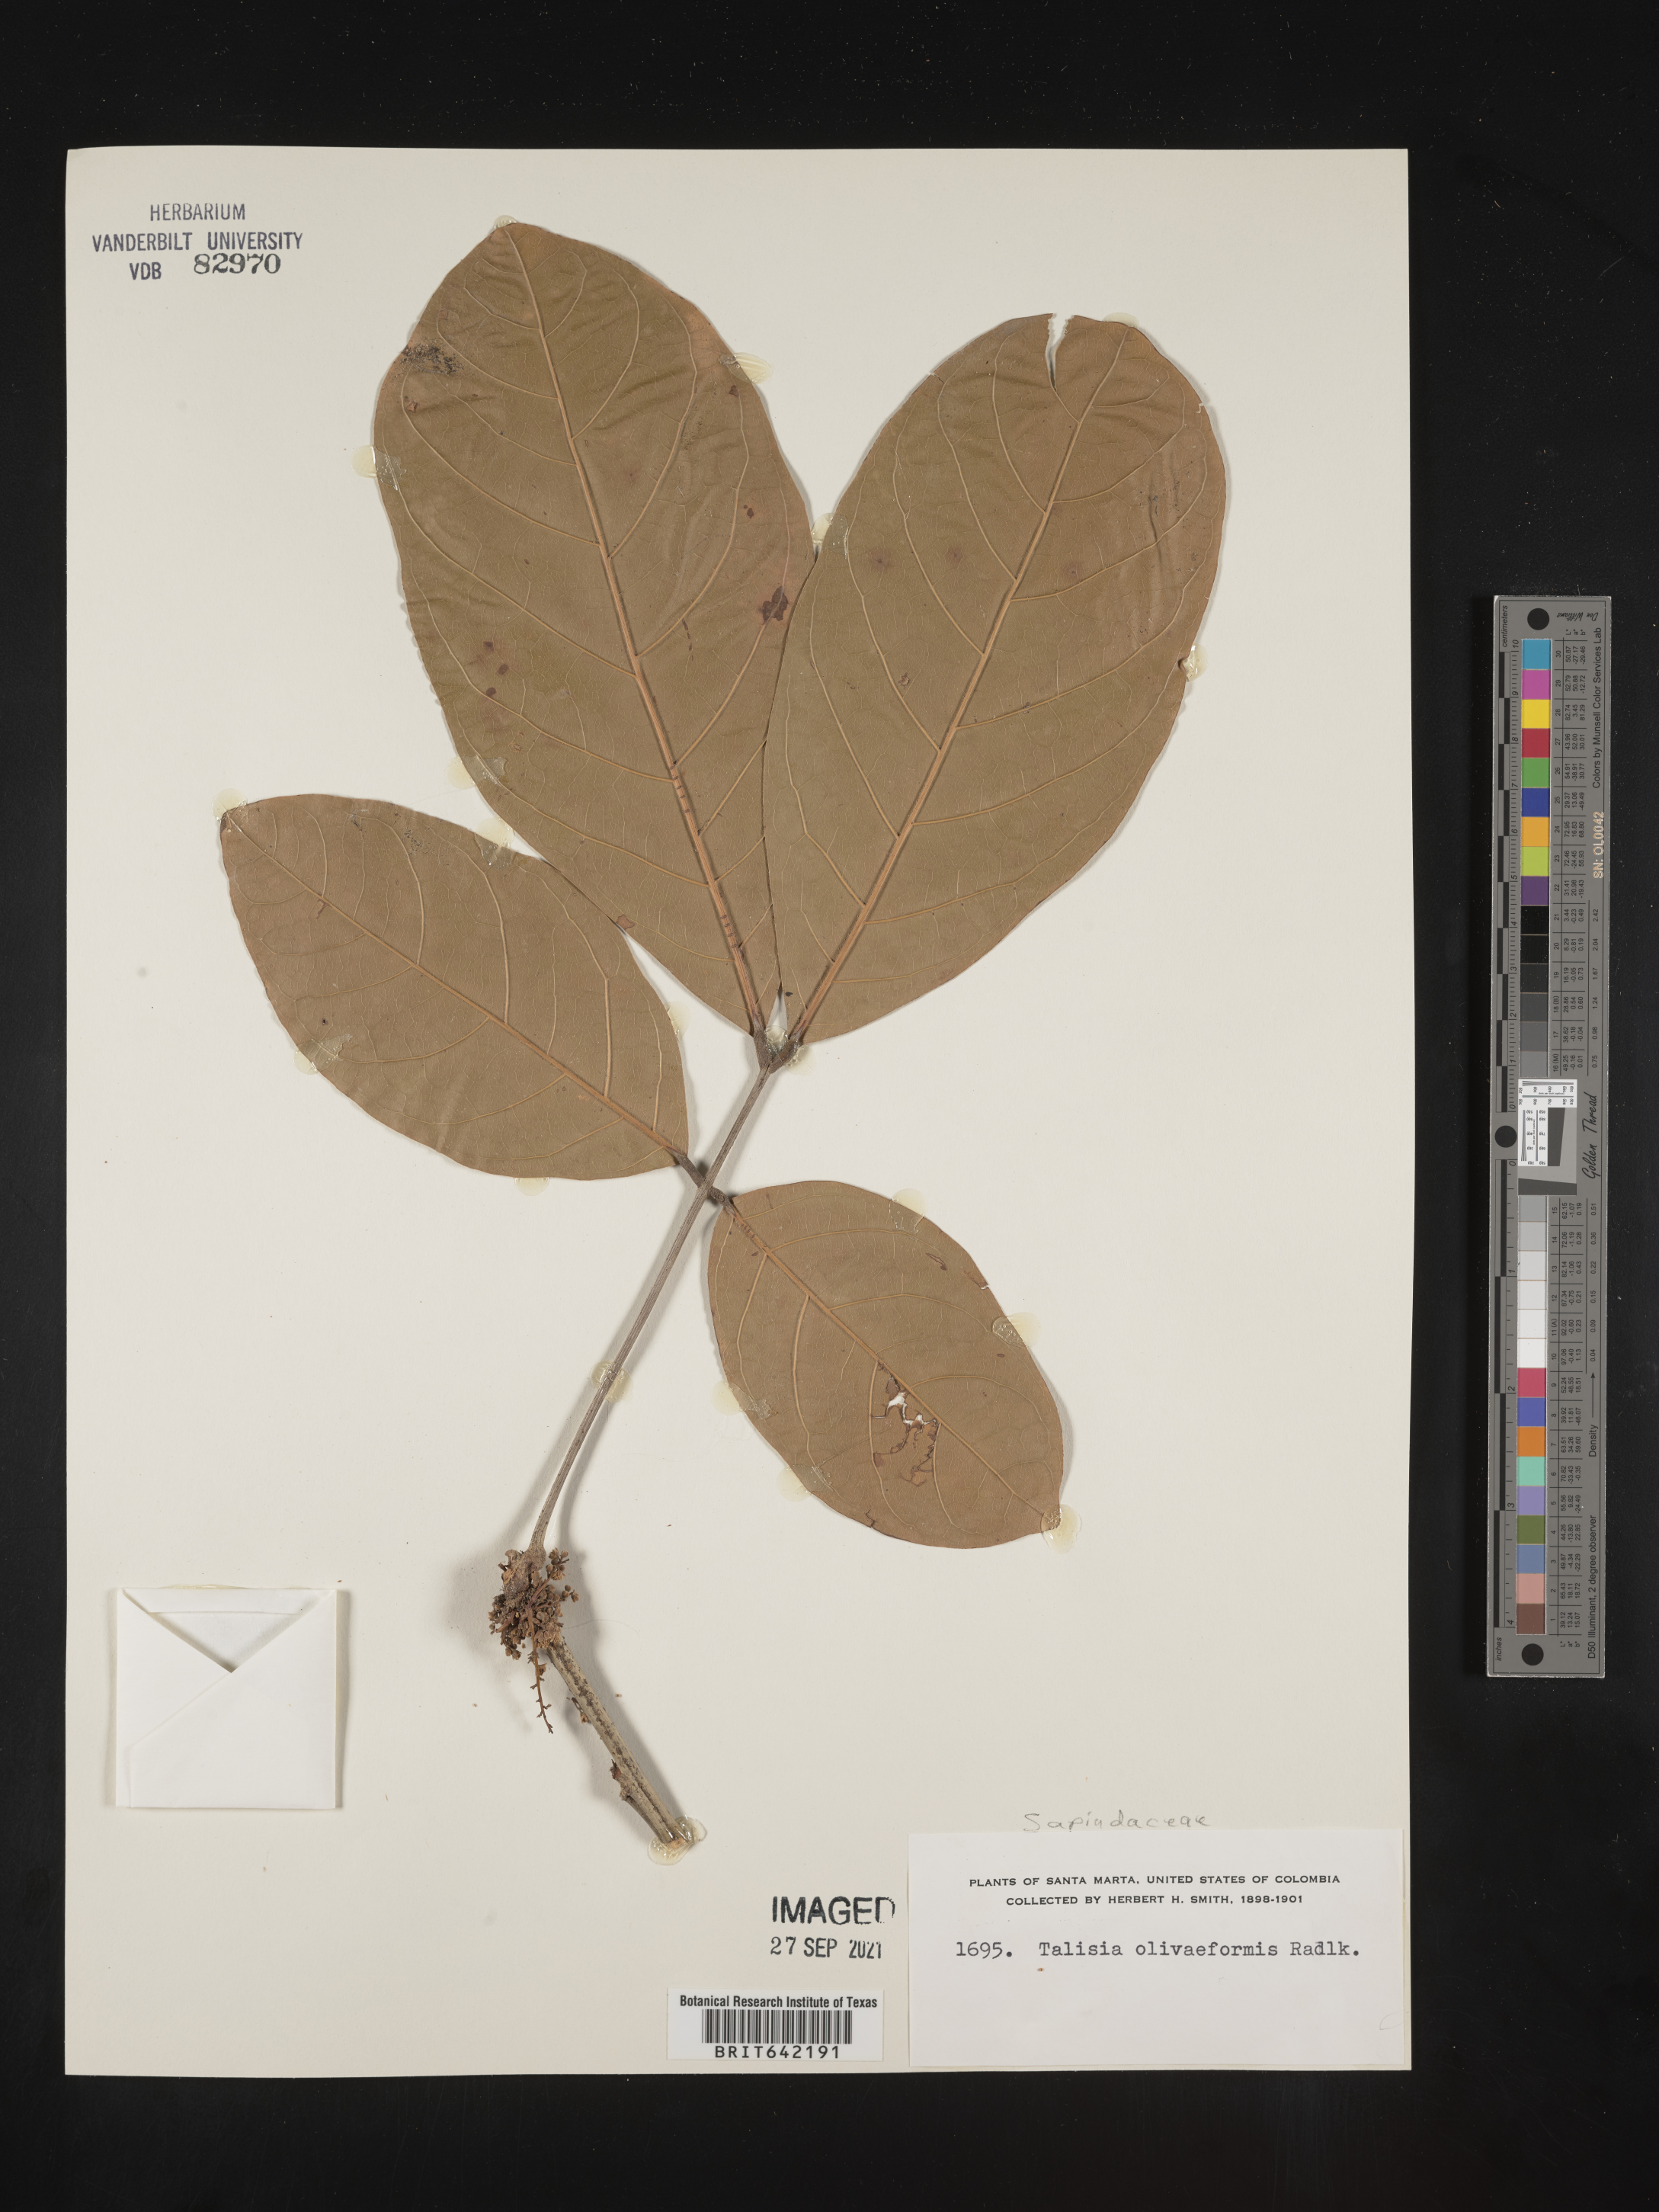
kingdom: Plantae
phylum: Tracheophyta
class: Magnoliopsida
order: Sapindales
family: Sapindaceae
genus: Talisia
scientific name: Talisia
